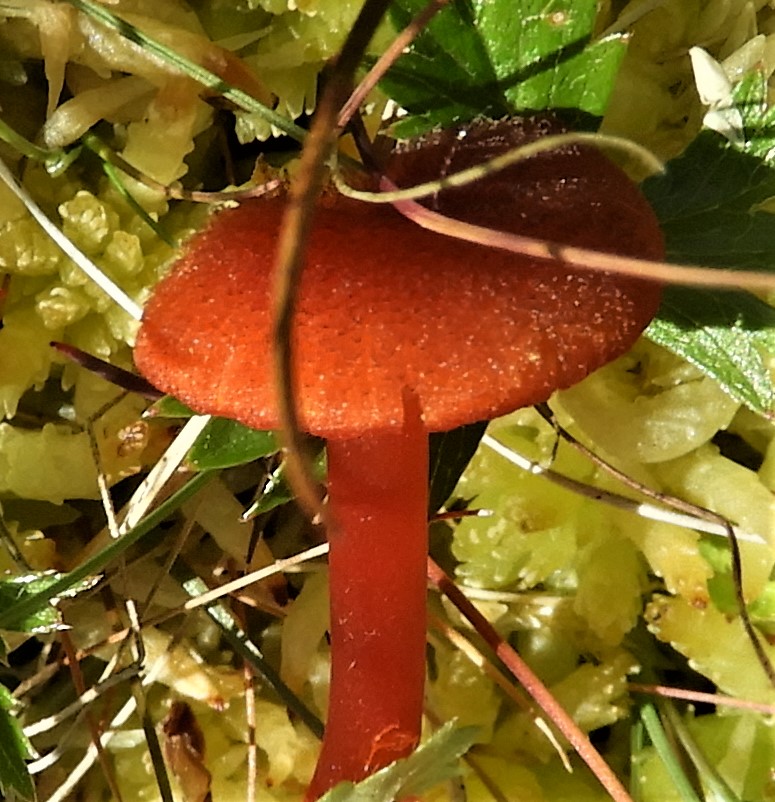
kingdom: Fungi
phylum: Basidiomycota
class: Agaricomycetes
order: Agaricales
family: Hygrophoraceae
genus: Hygrocybe
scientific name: Hygrocybe
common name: vokshat
